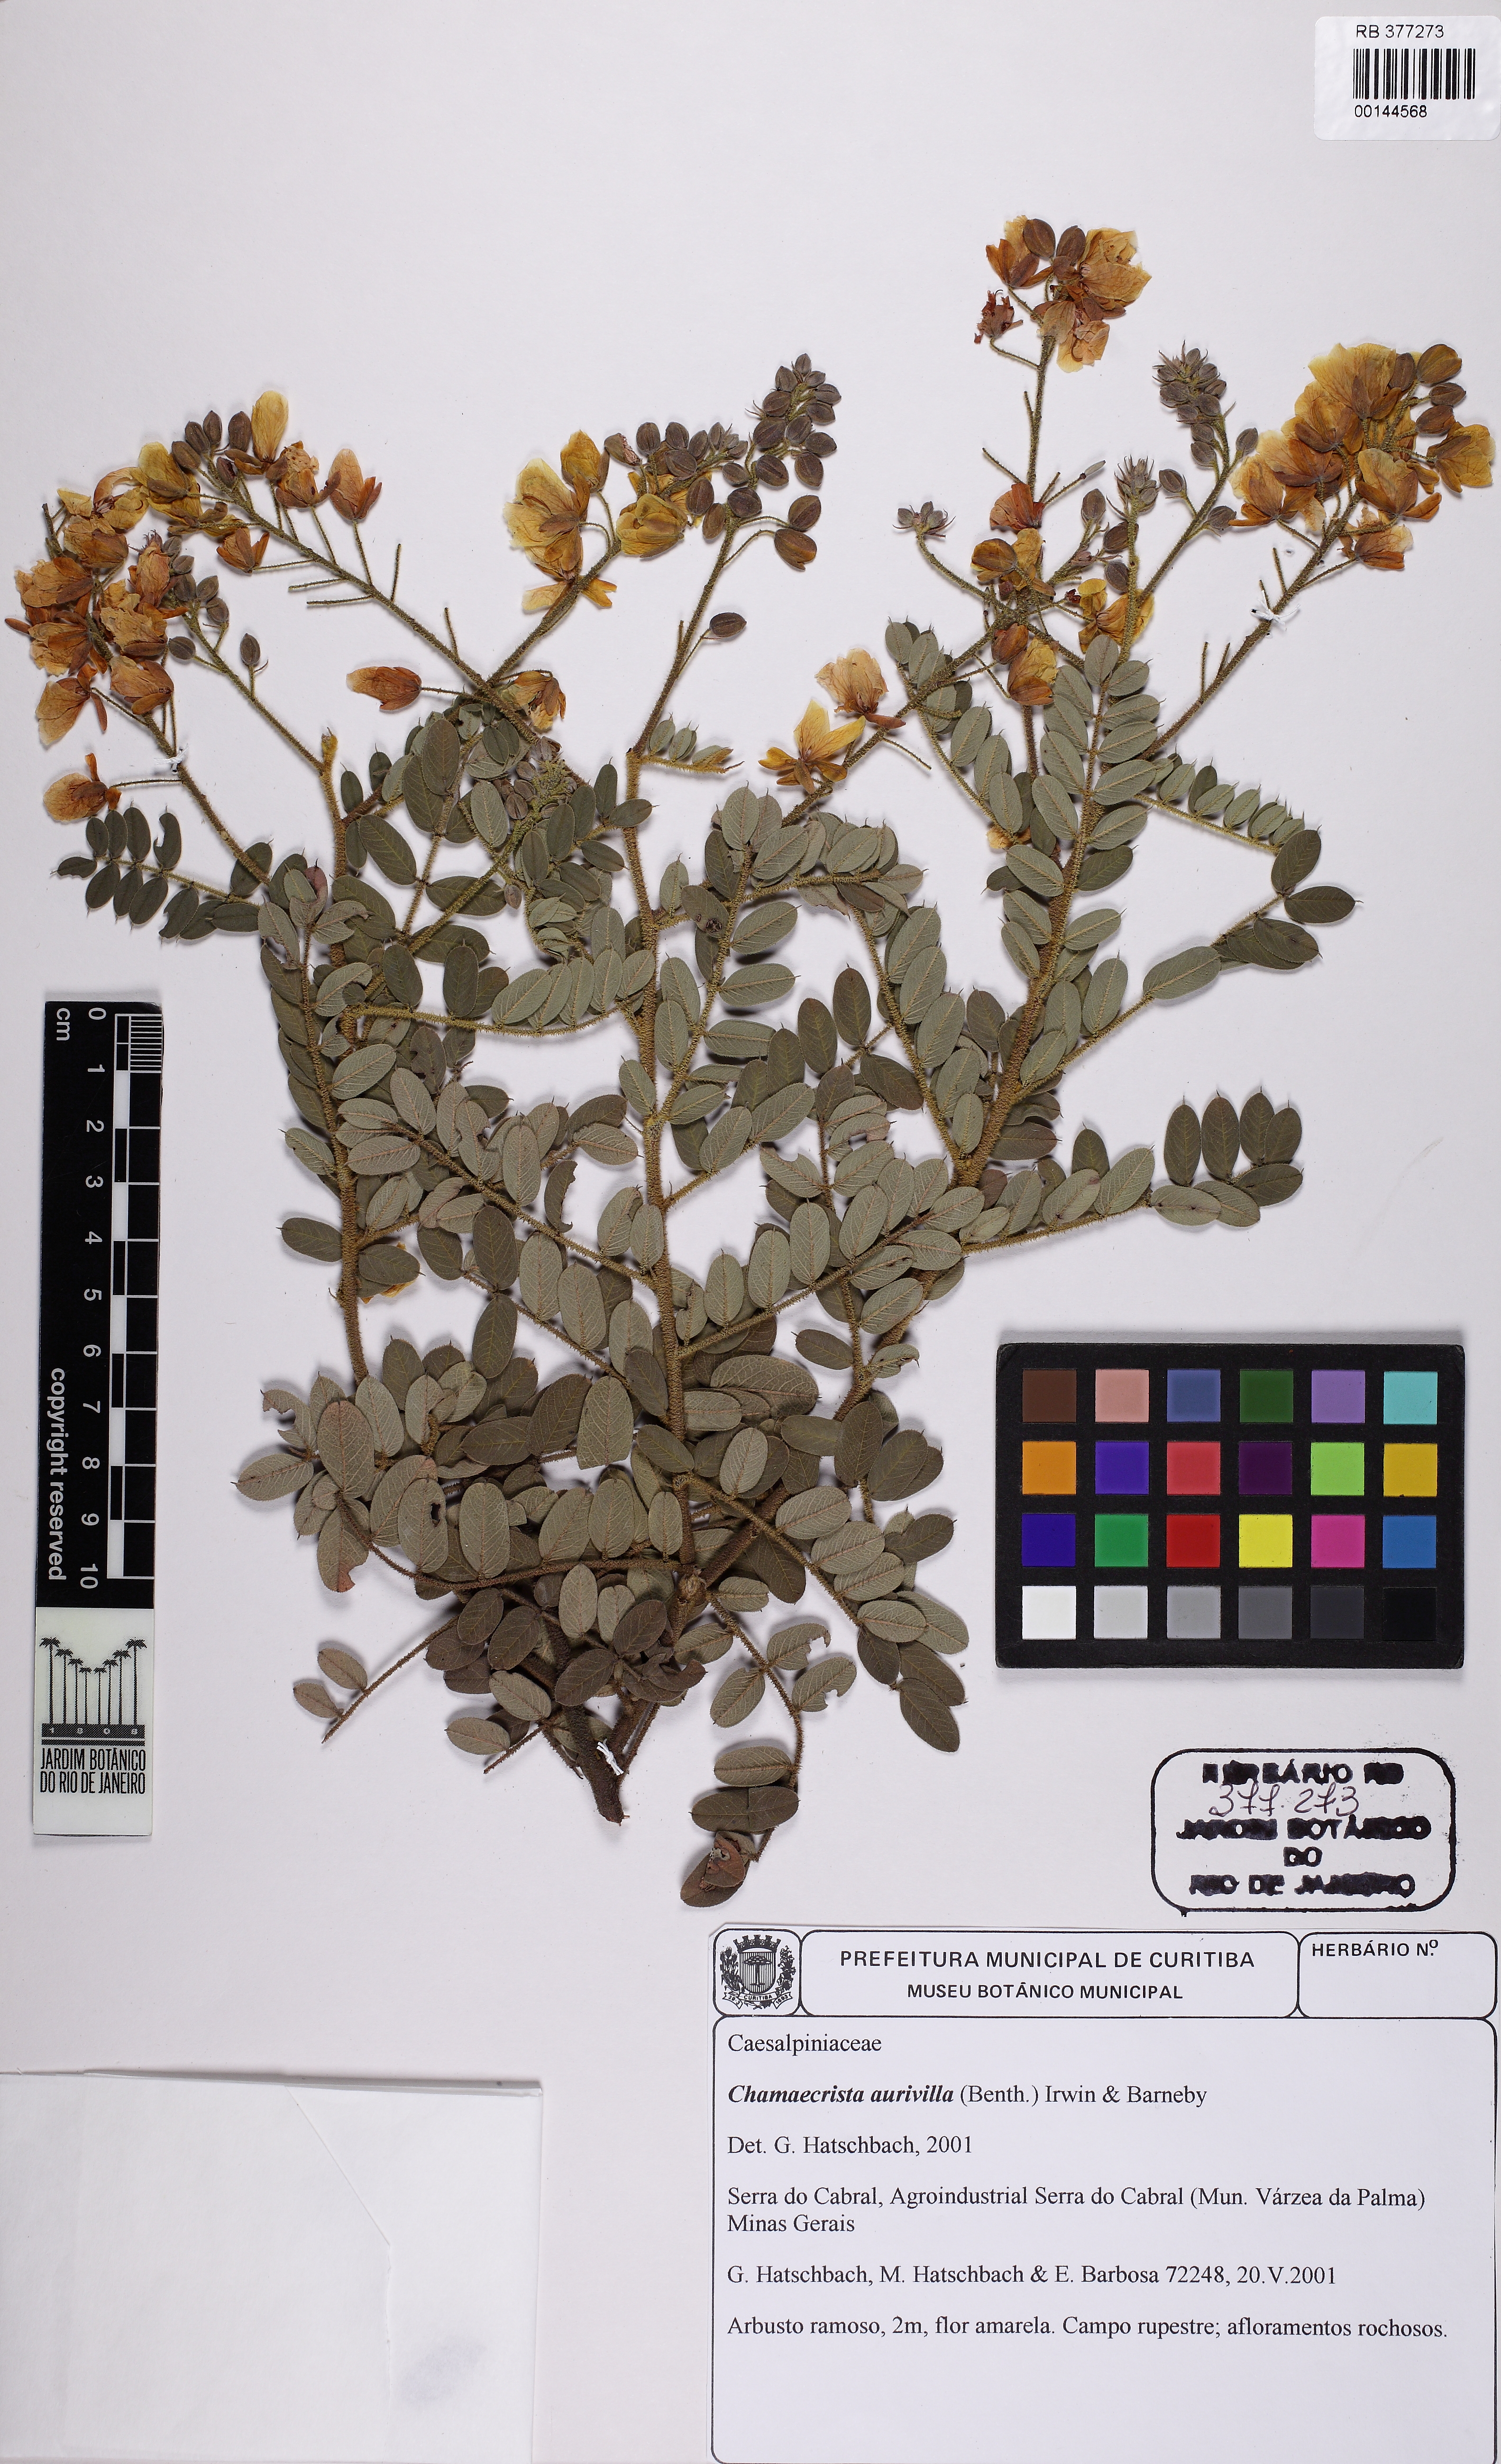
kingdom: Plantae
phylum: Tracheophyta
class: Magnoliopsida
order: Fabales
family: Fabaceae
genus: Chamaecrista
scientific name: Chamaecrista aurivilla
